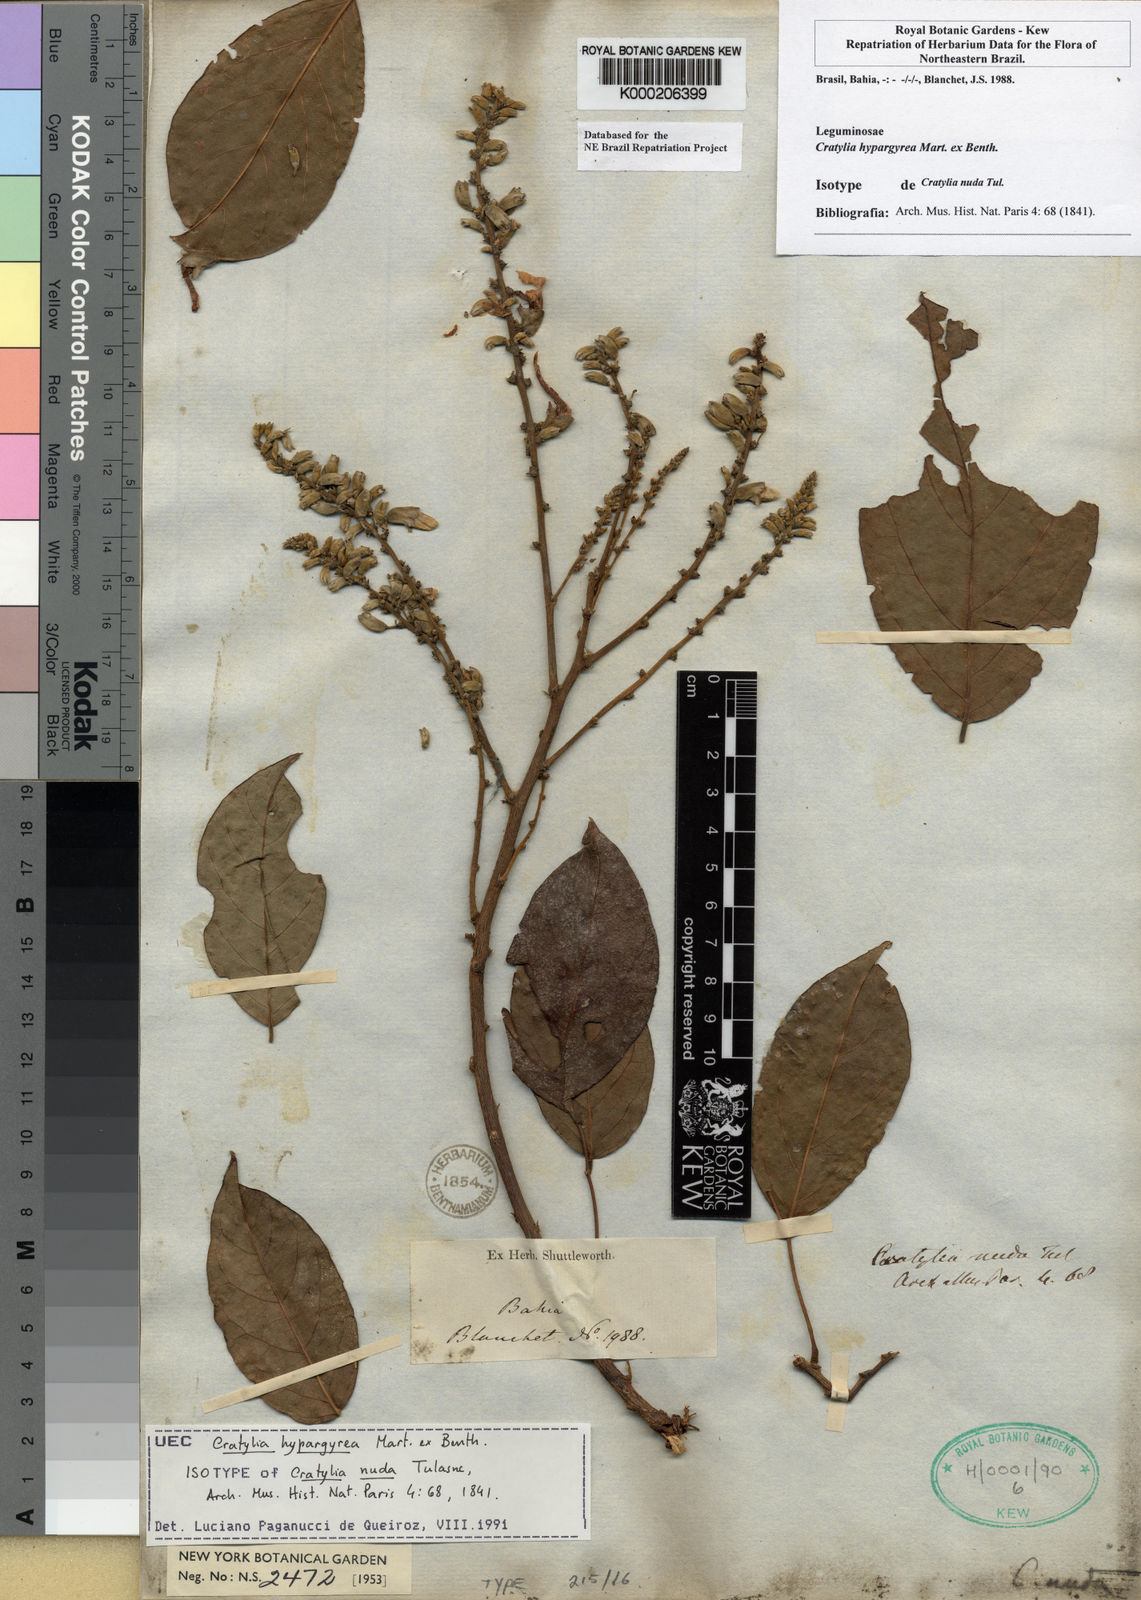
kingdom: Plantae
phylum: Tracheophyta
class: Magnoliopsida
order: Fabales
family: Fabaceae
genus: Cratylia
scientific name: Cratylia
